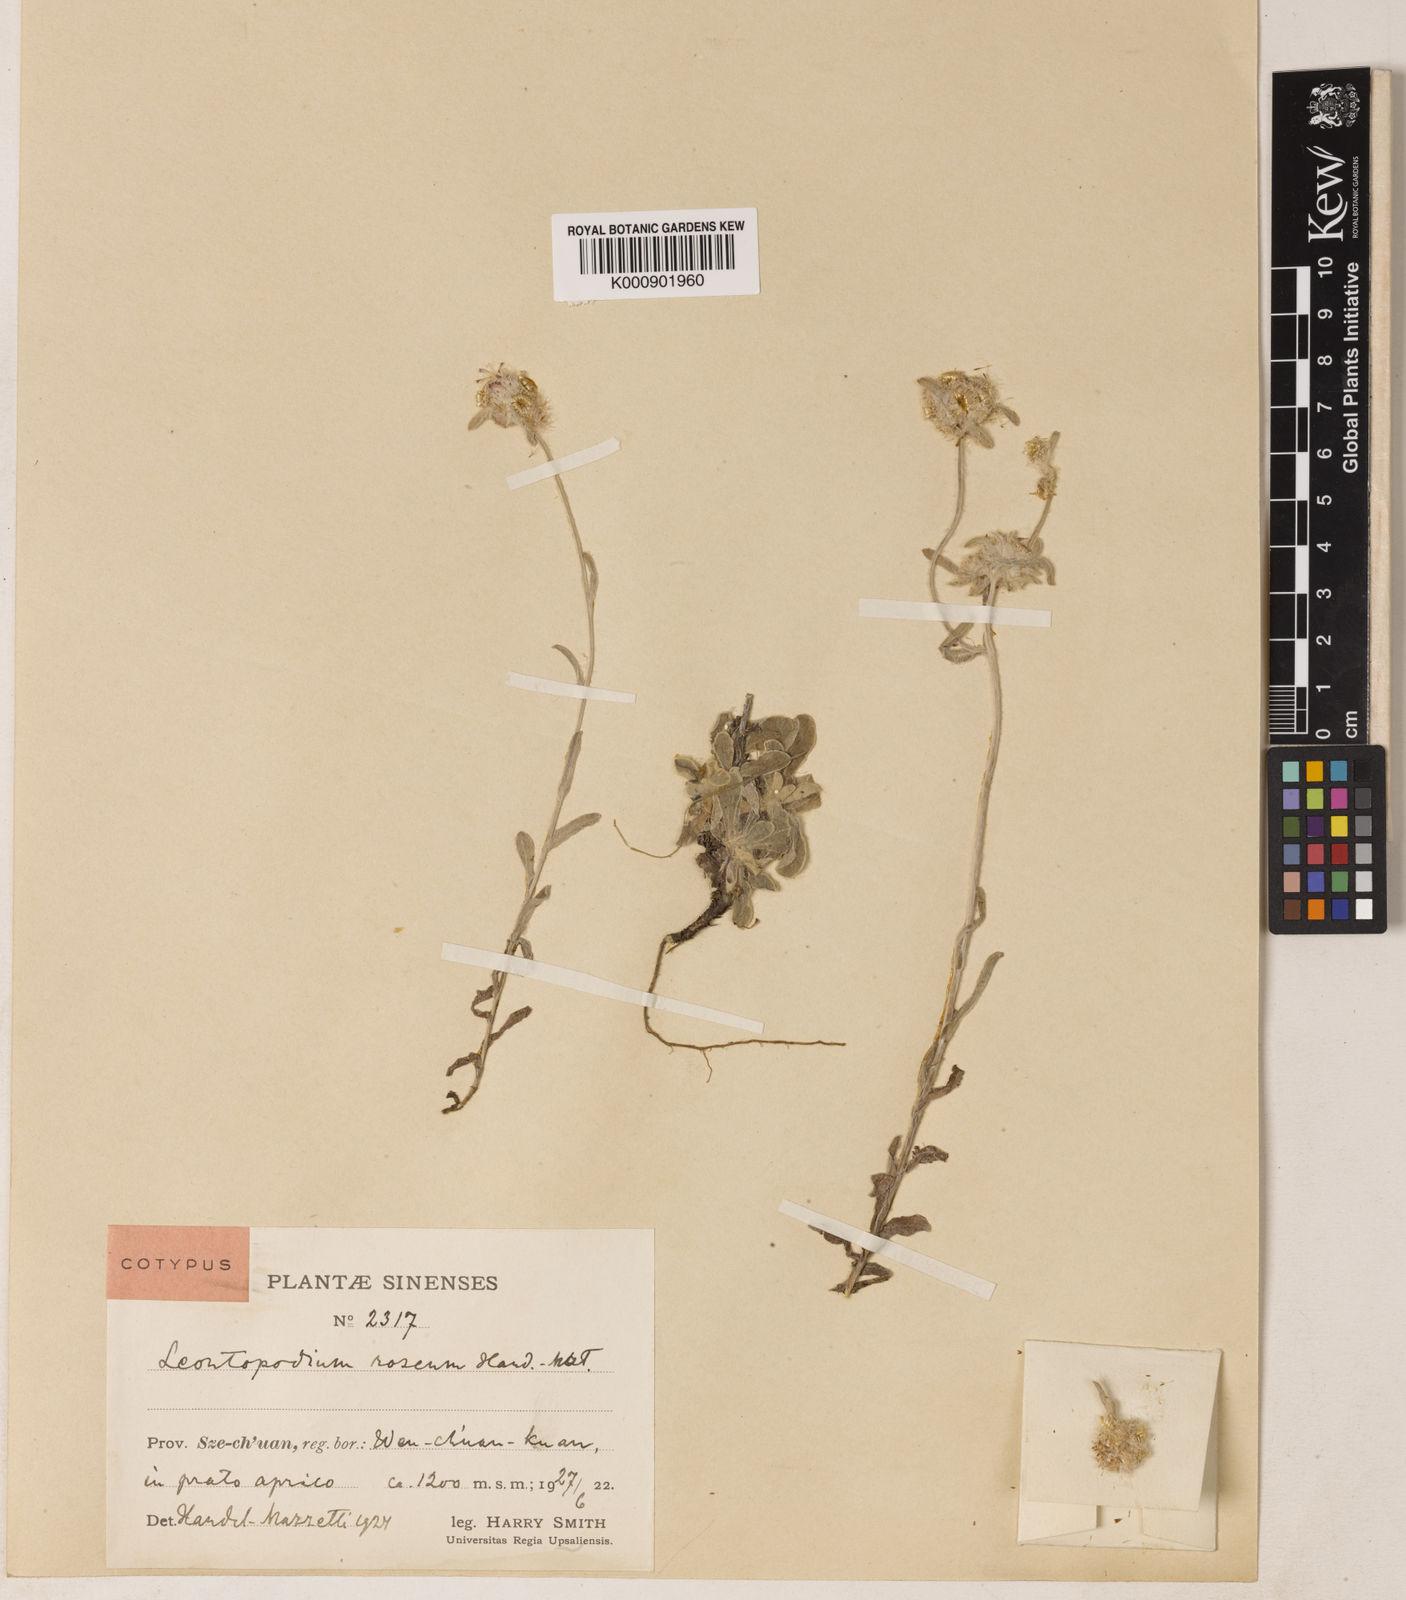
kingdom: Plantae
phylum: Tracheophyta
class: Magnoliopsida
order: Asterales
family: Asteraceae
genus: Leontopodium
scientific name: Leontopodium roseum
